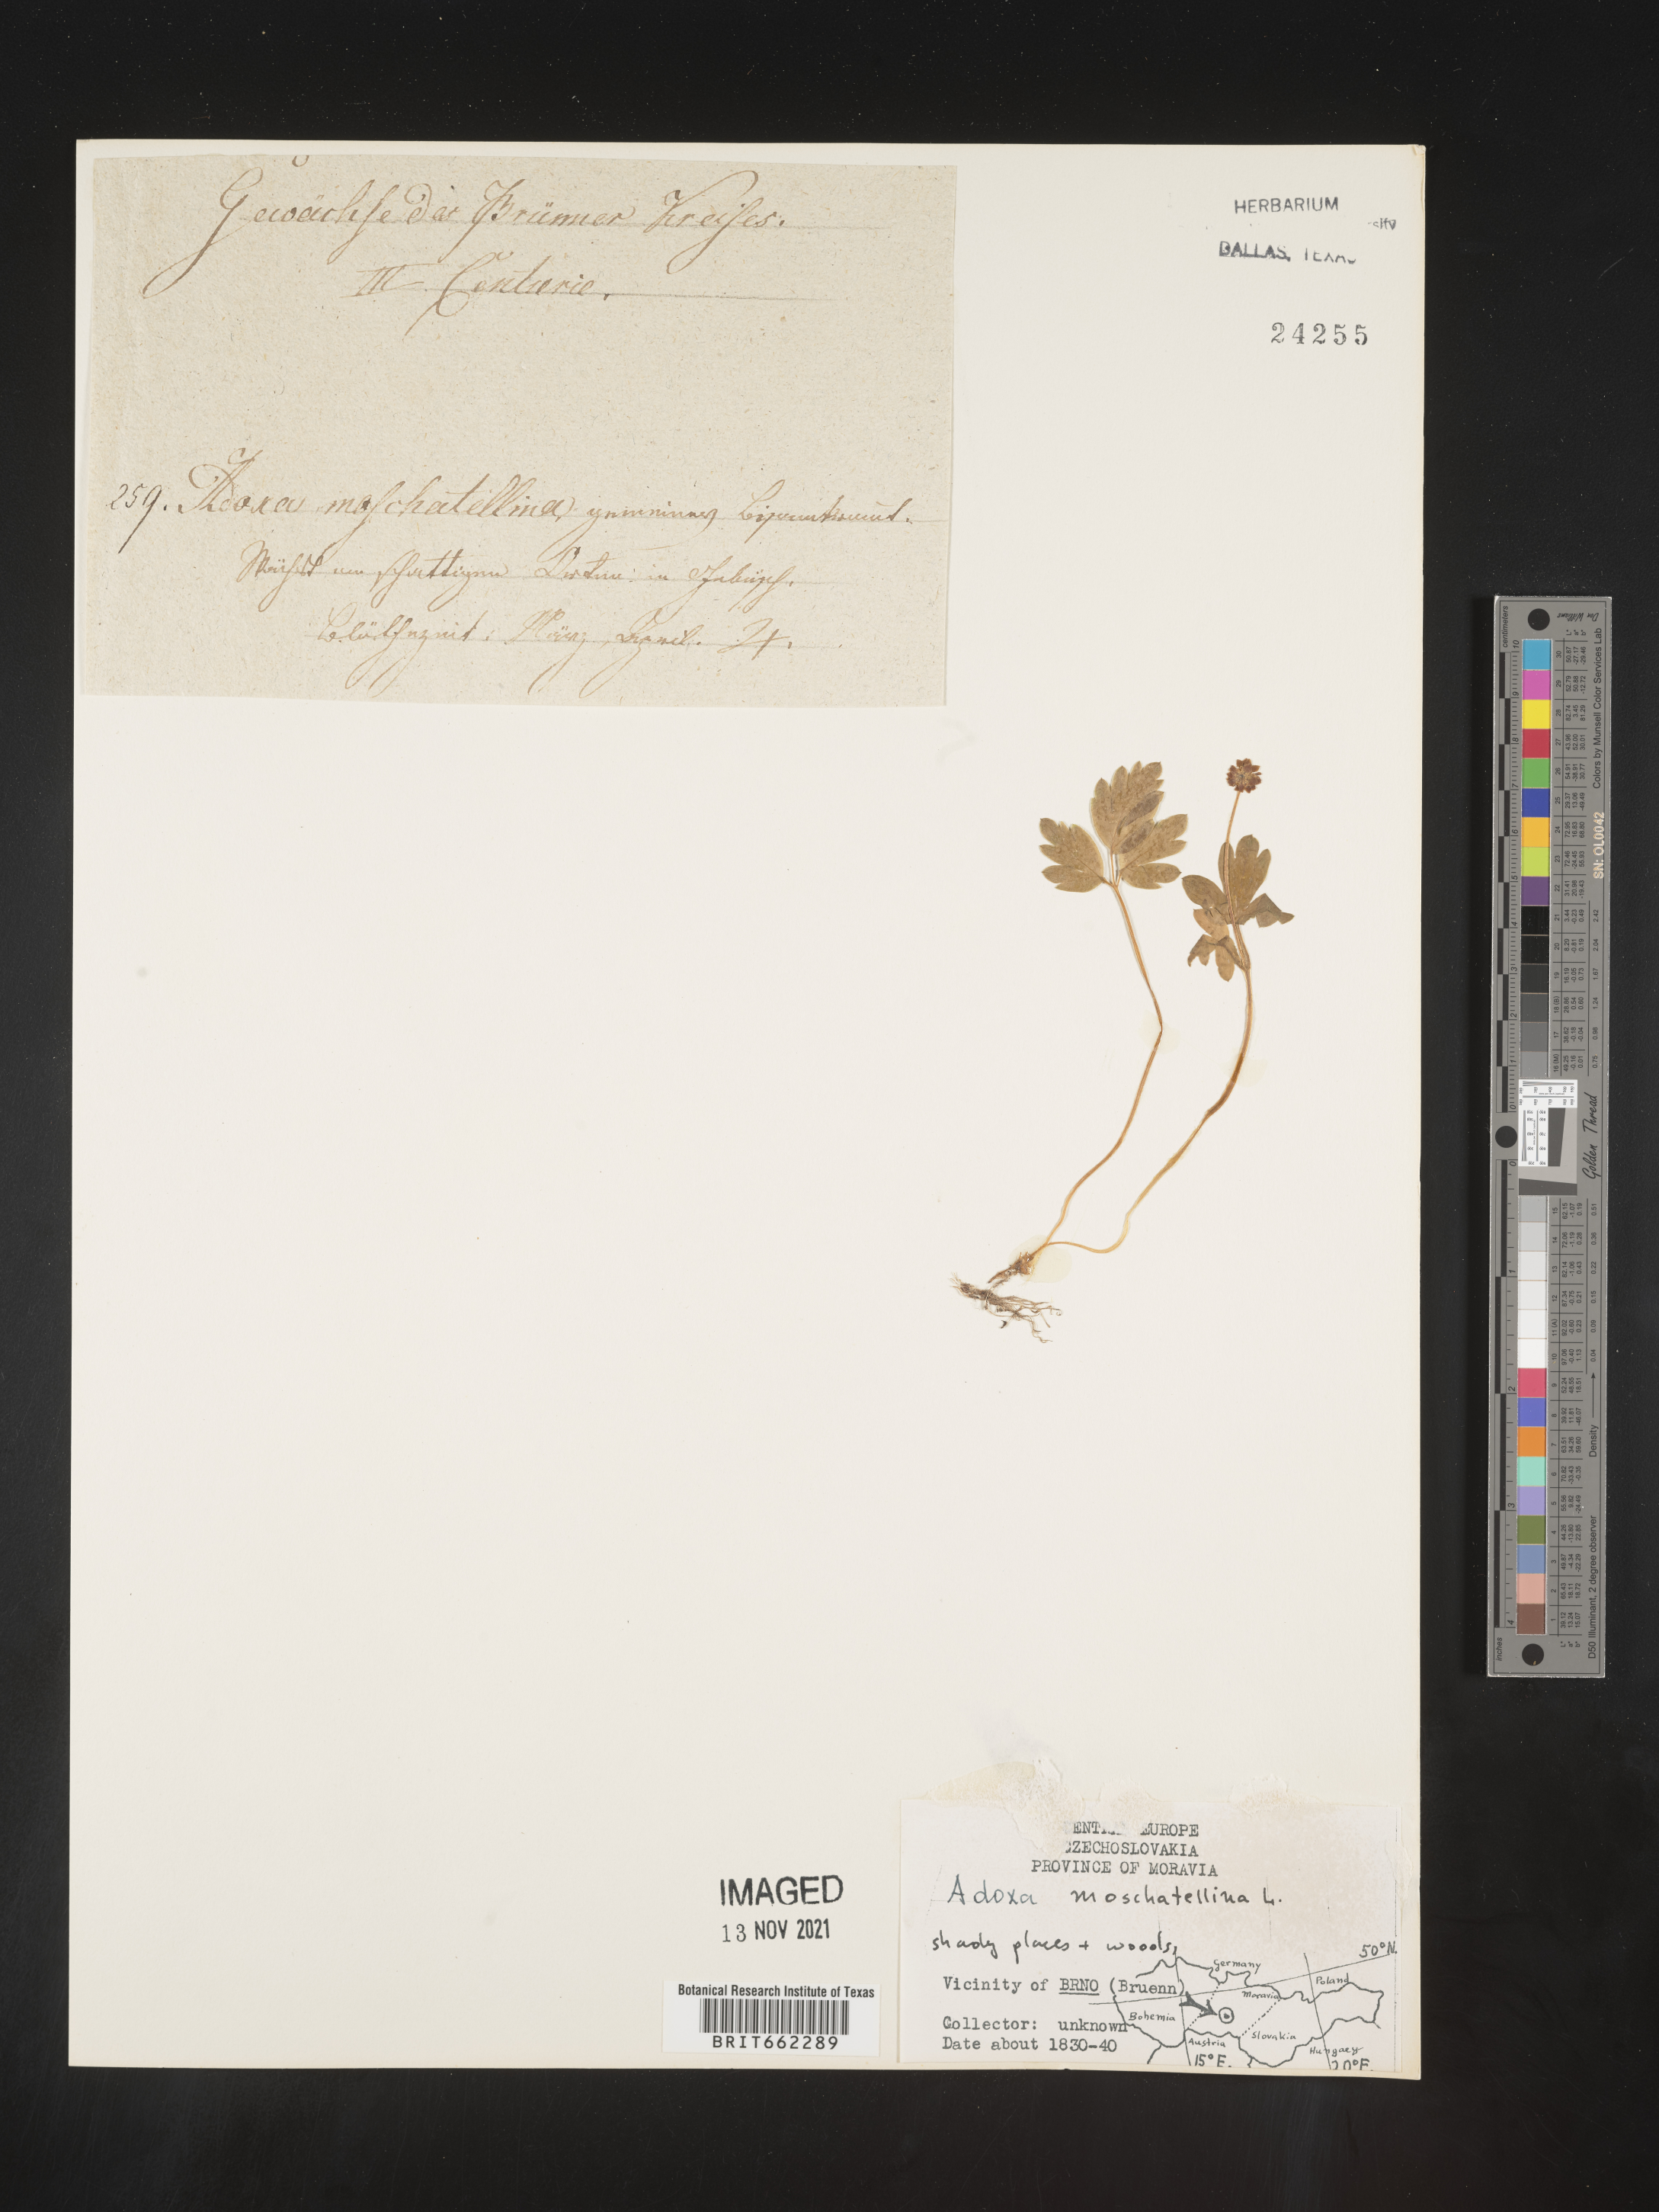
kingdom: Plantae
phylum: Tracheophyta
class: Magnoliopsida
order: Dipsacales
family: Viburnaceae
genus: Adoxa
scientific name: Adoxa
